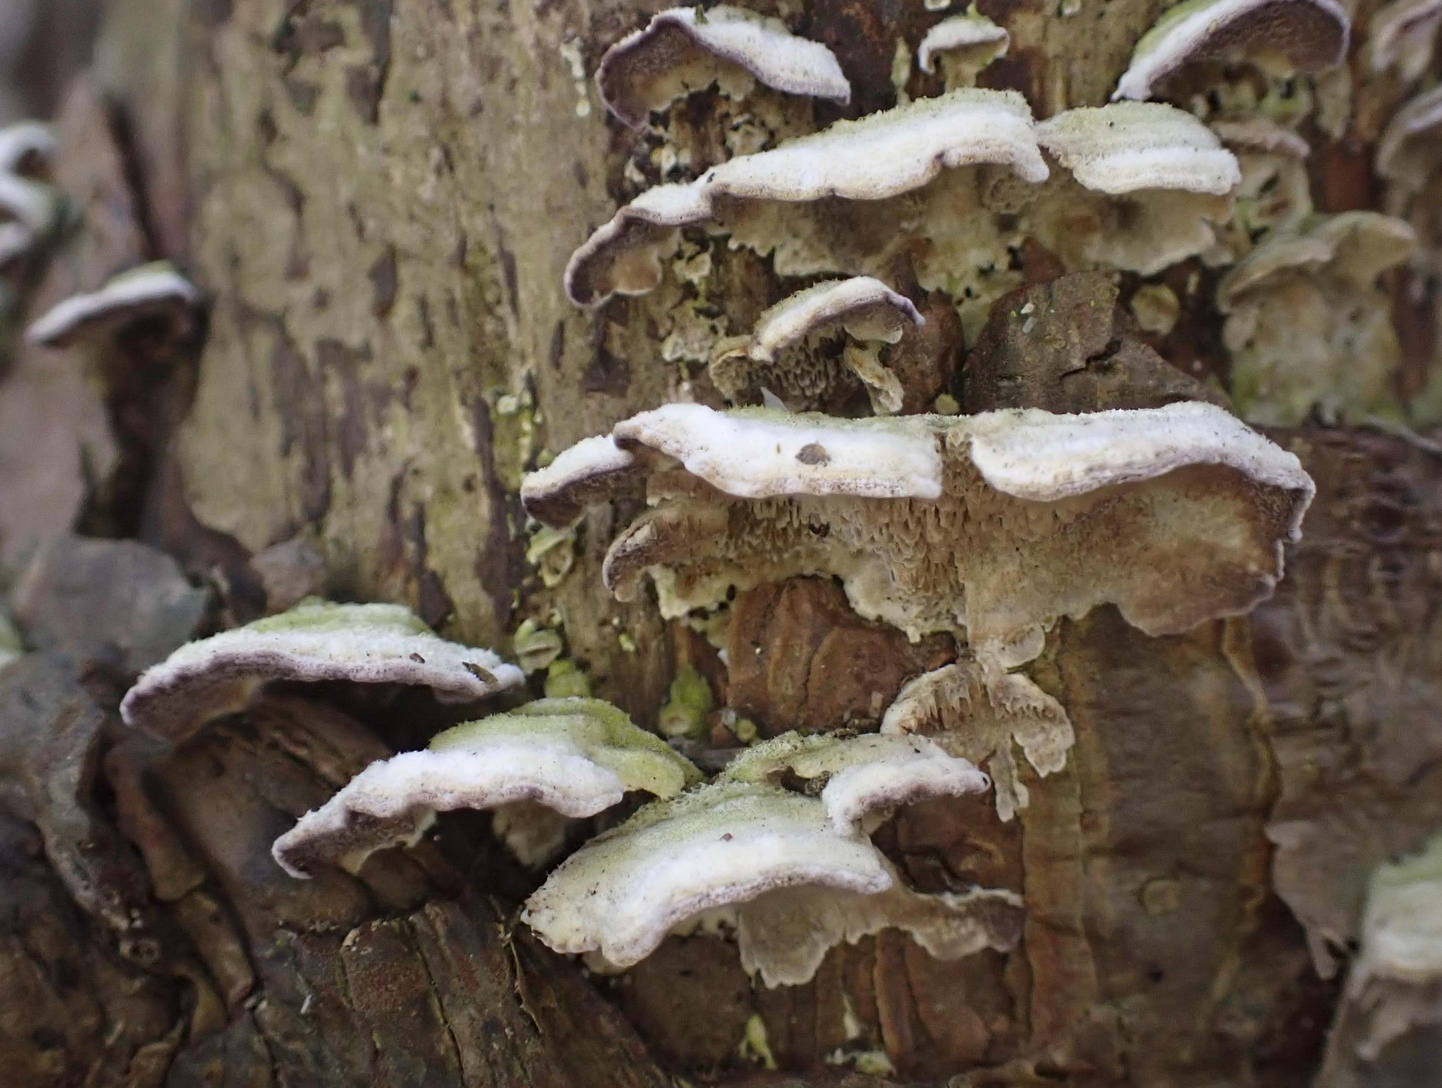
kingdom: Fungi
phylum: Basidiomycota
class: Agaricomycetes
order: Hymenochaetales
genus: Trichaptum
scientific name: Trichaptum fuscoviolaceum
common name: tandet violporesvamp
